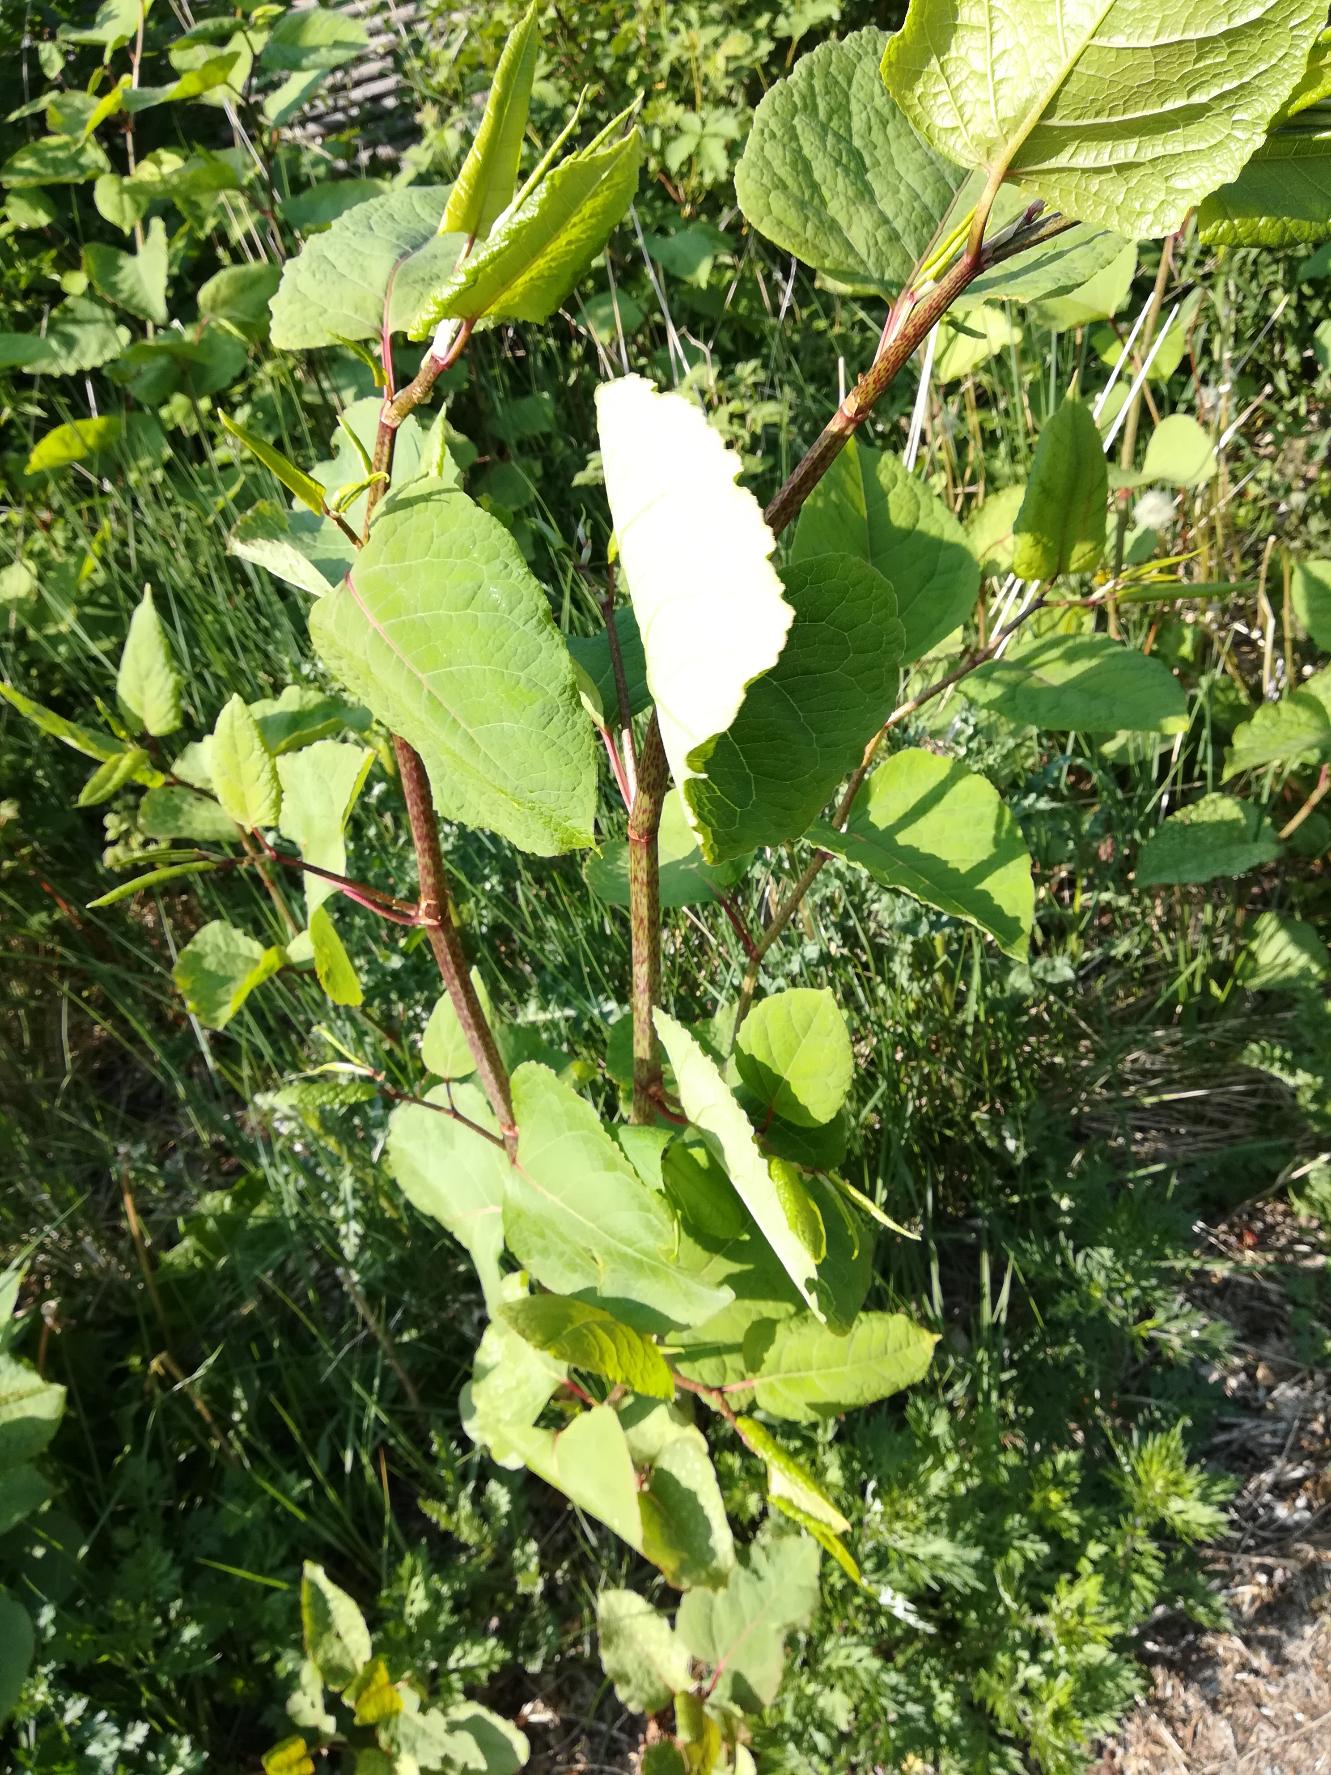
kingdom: Plantae
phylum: Tracheophyta
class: Magnoliopsida
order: Caryophyllales
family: Polygonaceae
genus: Reynoutria
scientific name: Reynoutria japonica
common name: Japan-pileurt
